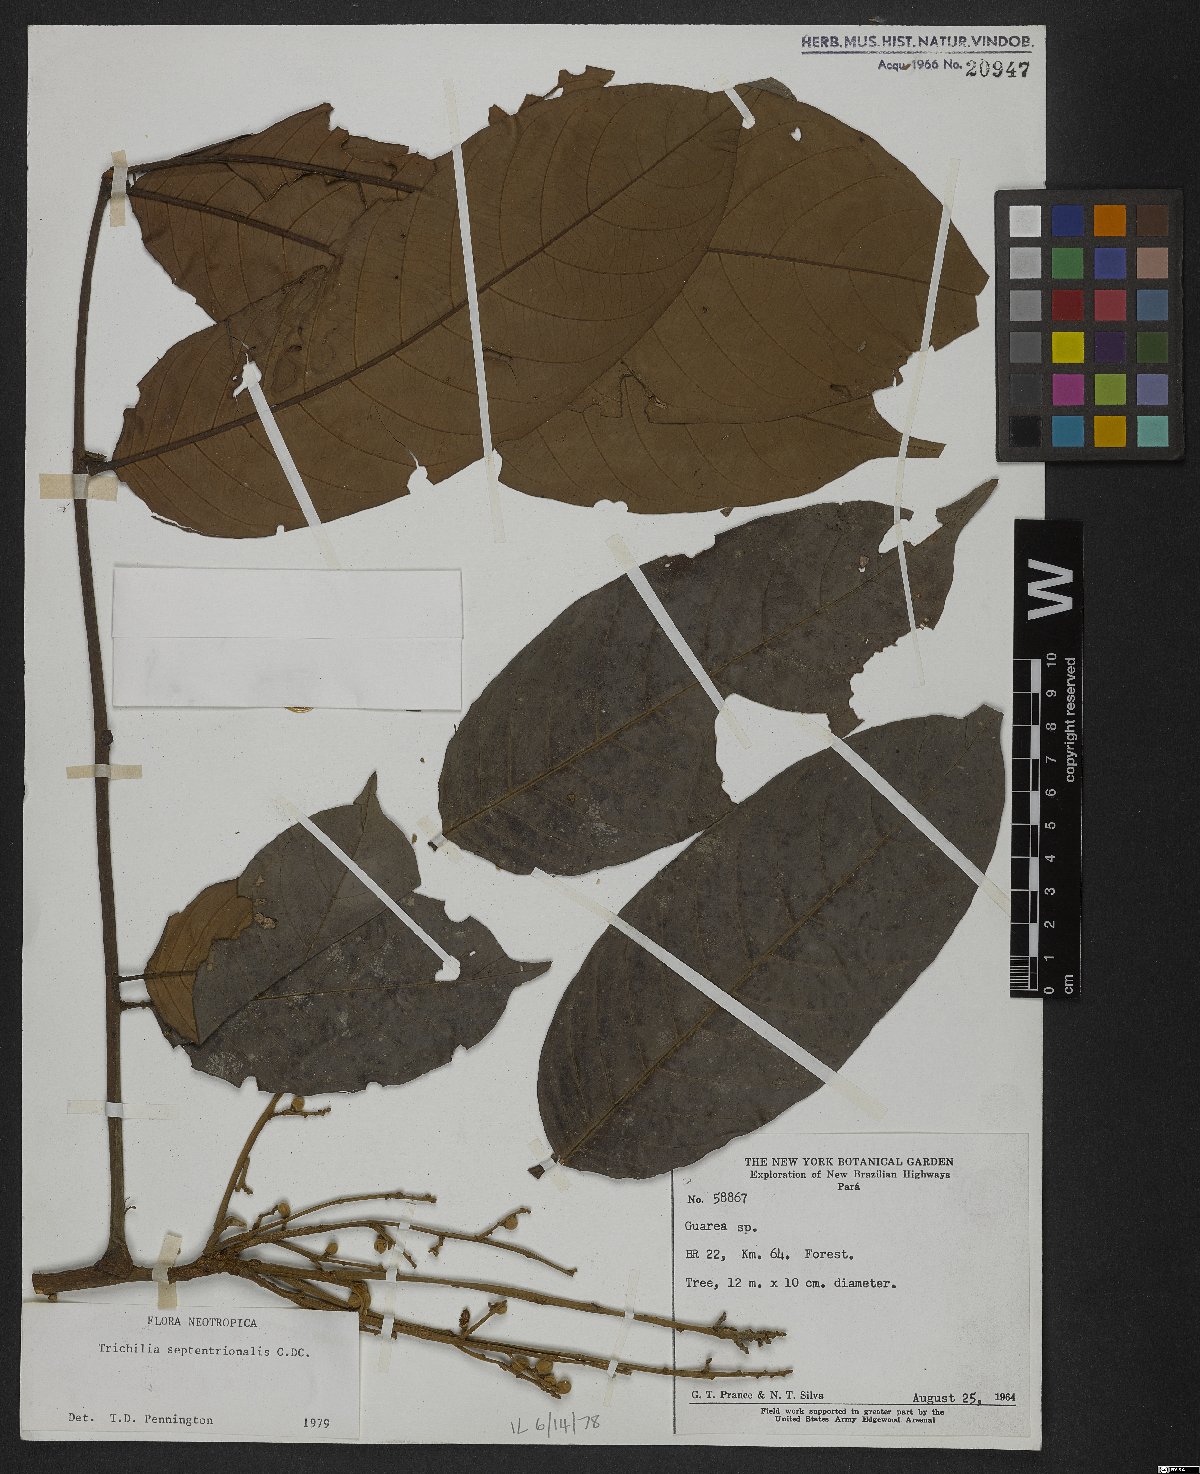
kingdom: Plantae
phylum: Tracheophyta
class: Magnoliopsida
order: Sapindales
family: Meliaceae
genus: Trichilia
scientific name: Trichilia septentrionalis
